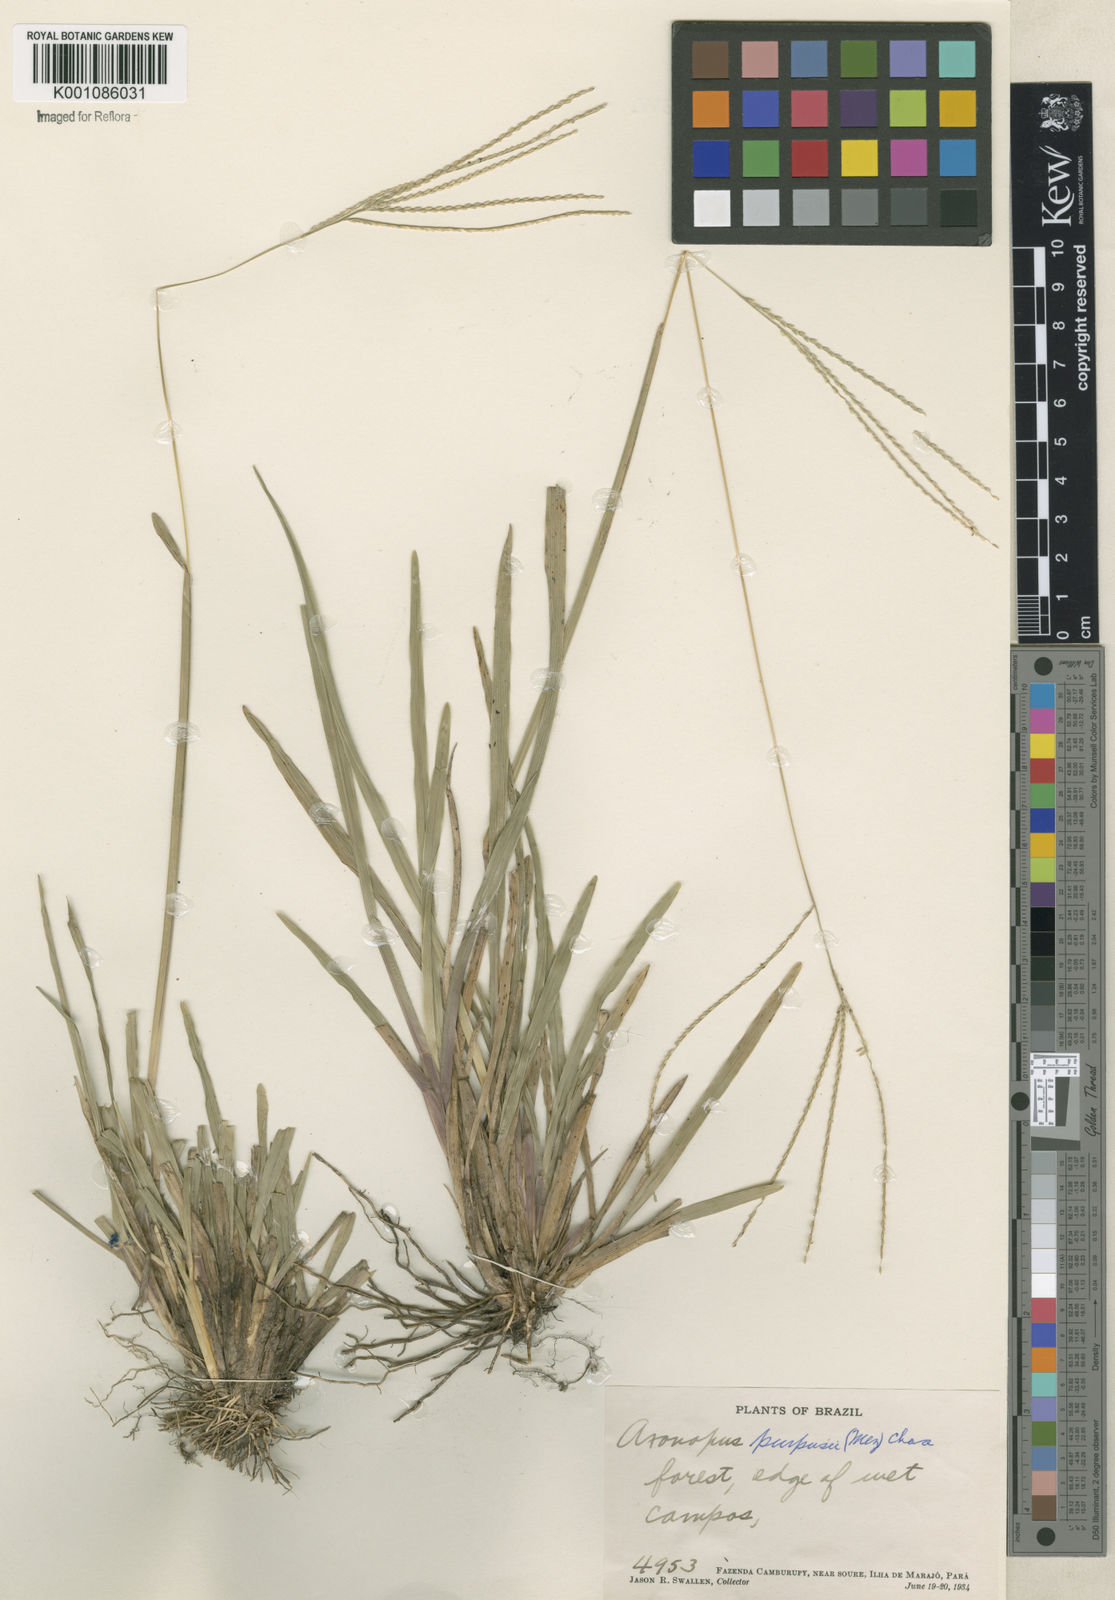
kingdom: Plantae
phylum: Tracheophyta
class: Liliopsida
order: Poales
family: Poaceae
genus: Axonopus
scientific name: Axonopus purpusii
